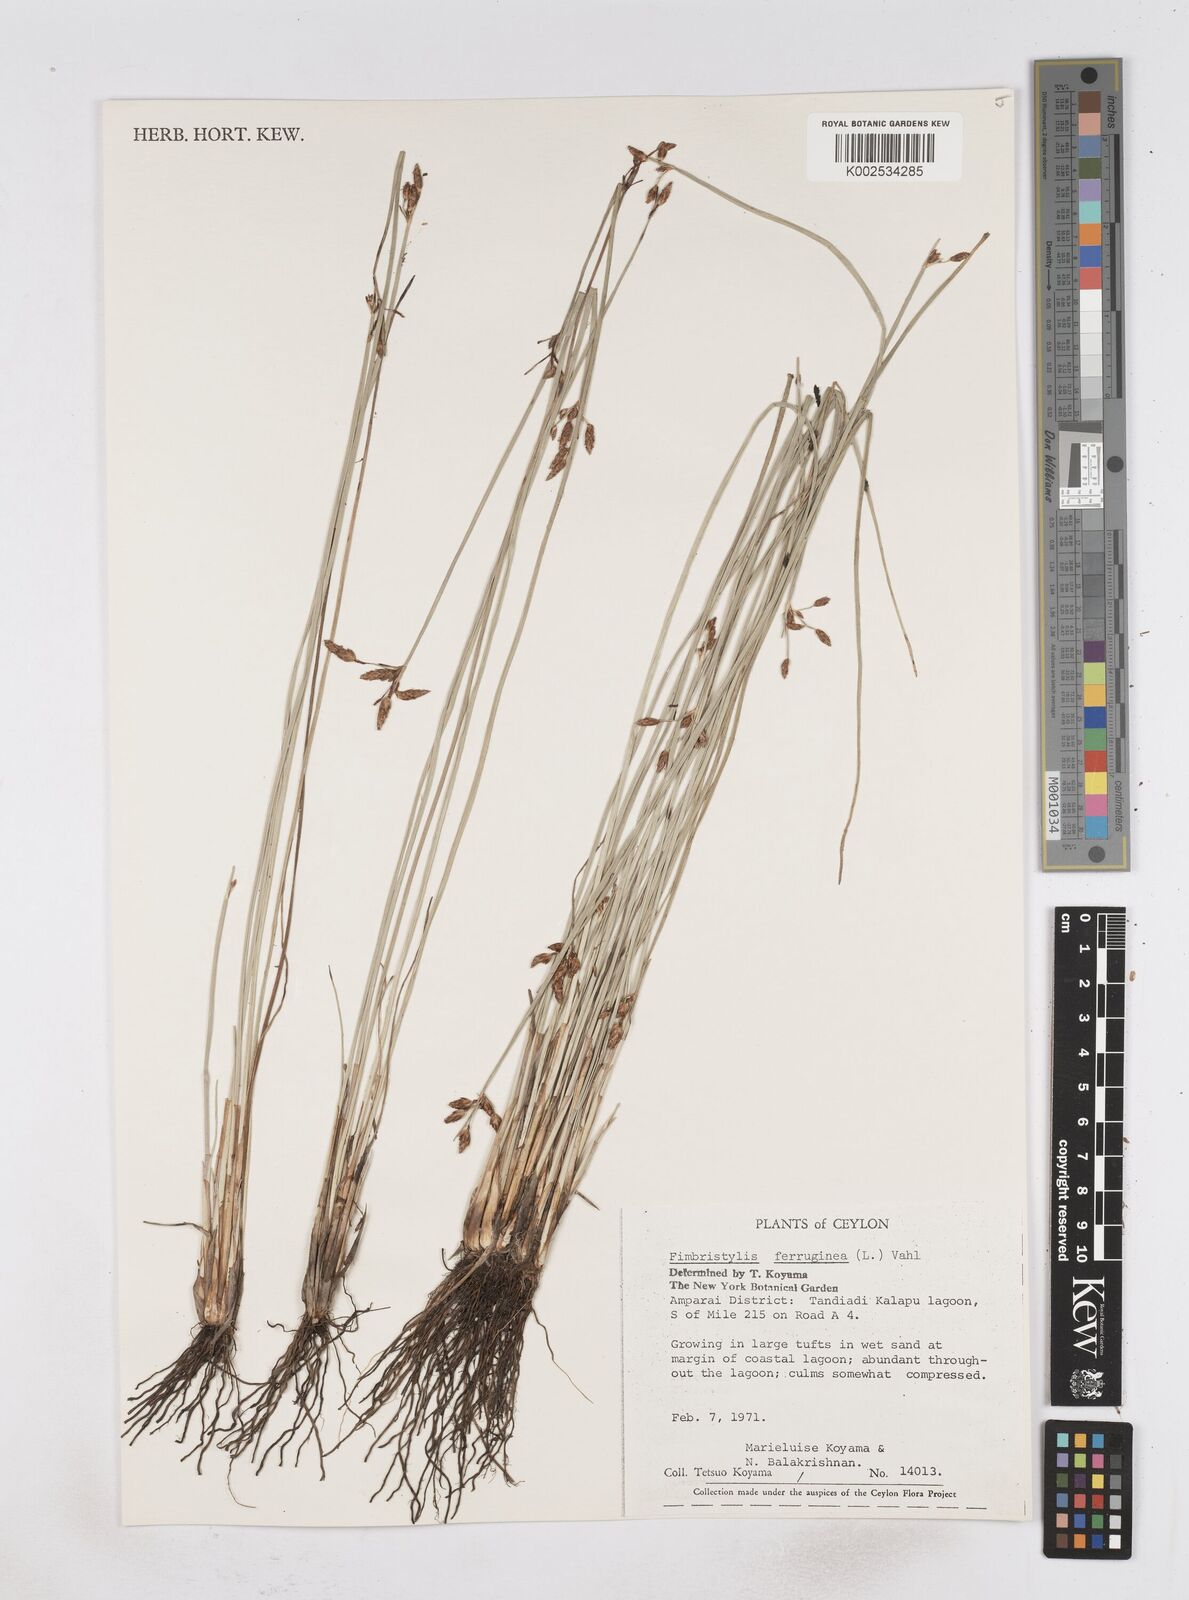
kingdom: Plantae
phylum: Tracheophyta
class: Liliopsida
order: Poales
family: Cyperaceae
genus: Fimbristylis
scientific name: Fimbristylis ferruginea
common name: West indian fimbry
